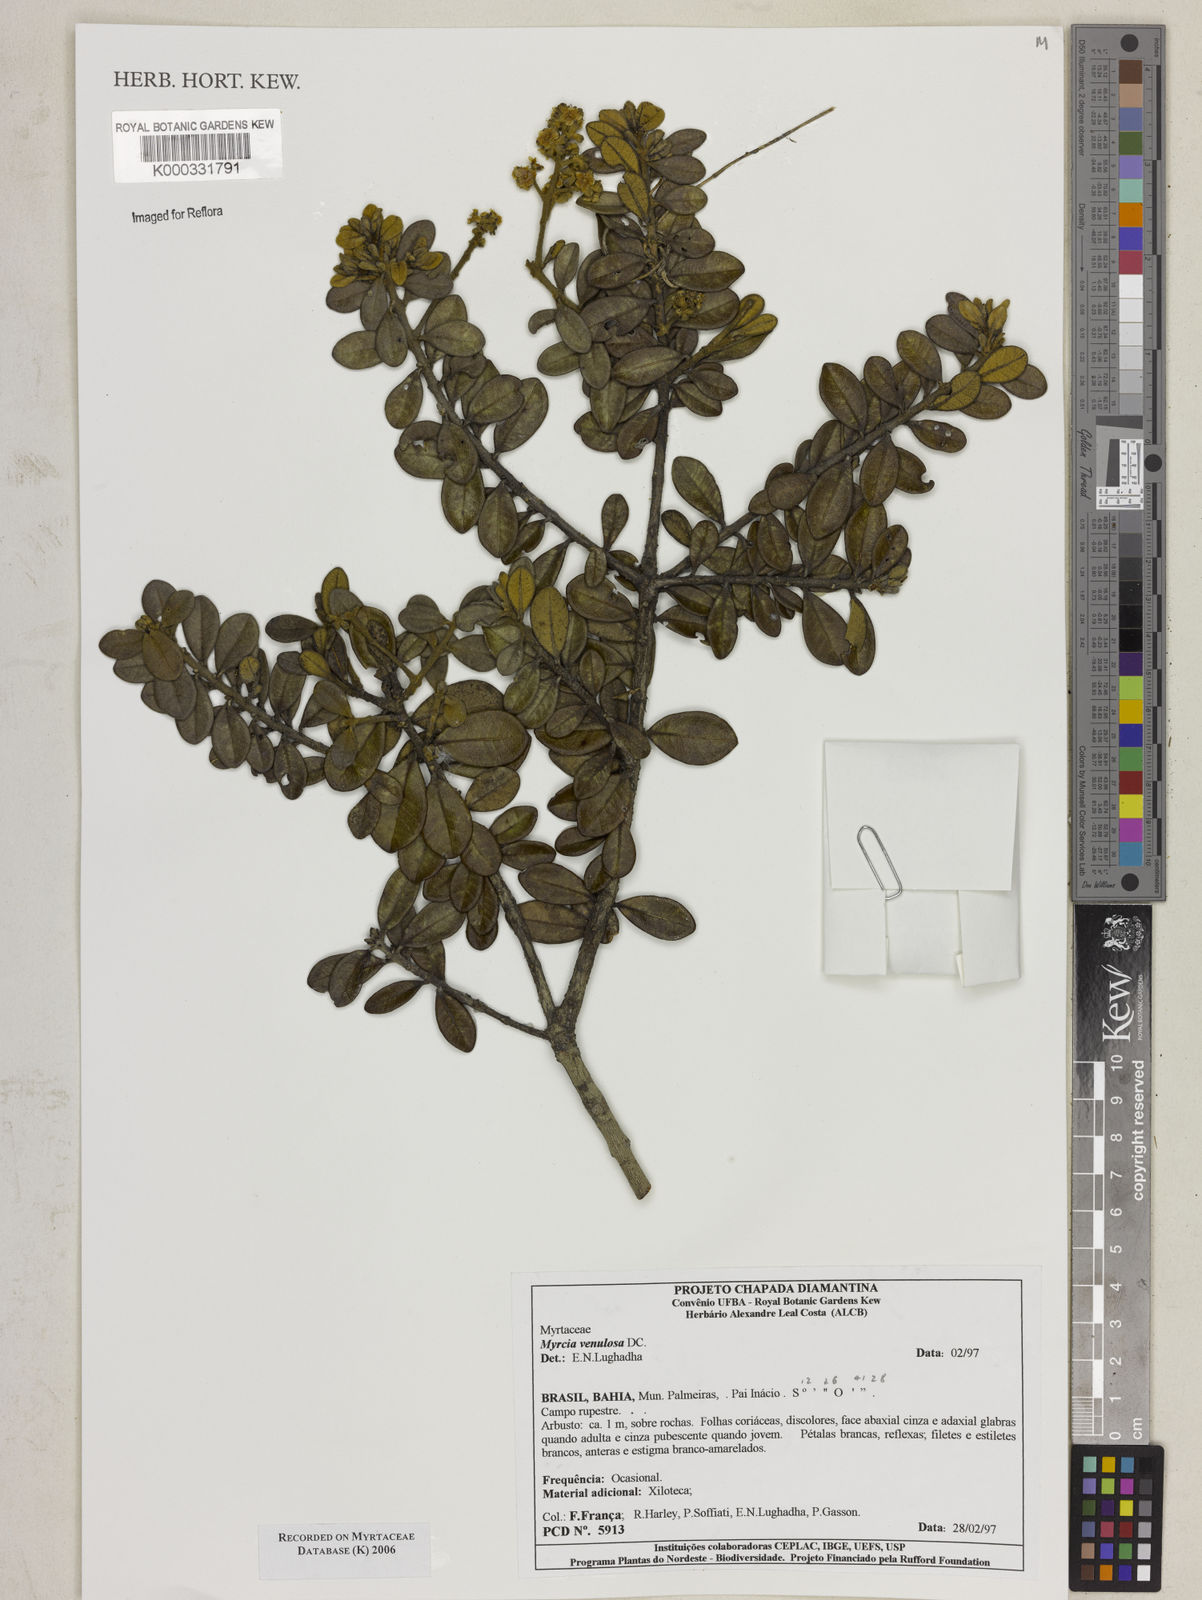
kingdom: Plantae
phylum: Tracheophyta
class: Magnoliopsida
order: Myrtales
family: Myrtaceae
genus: Myrcia
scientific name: Myrcia venulosa
